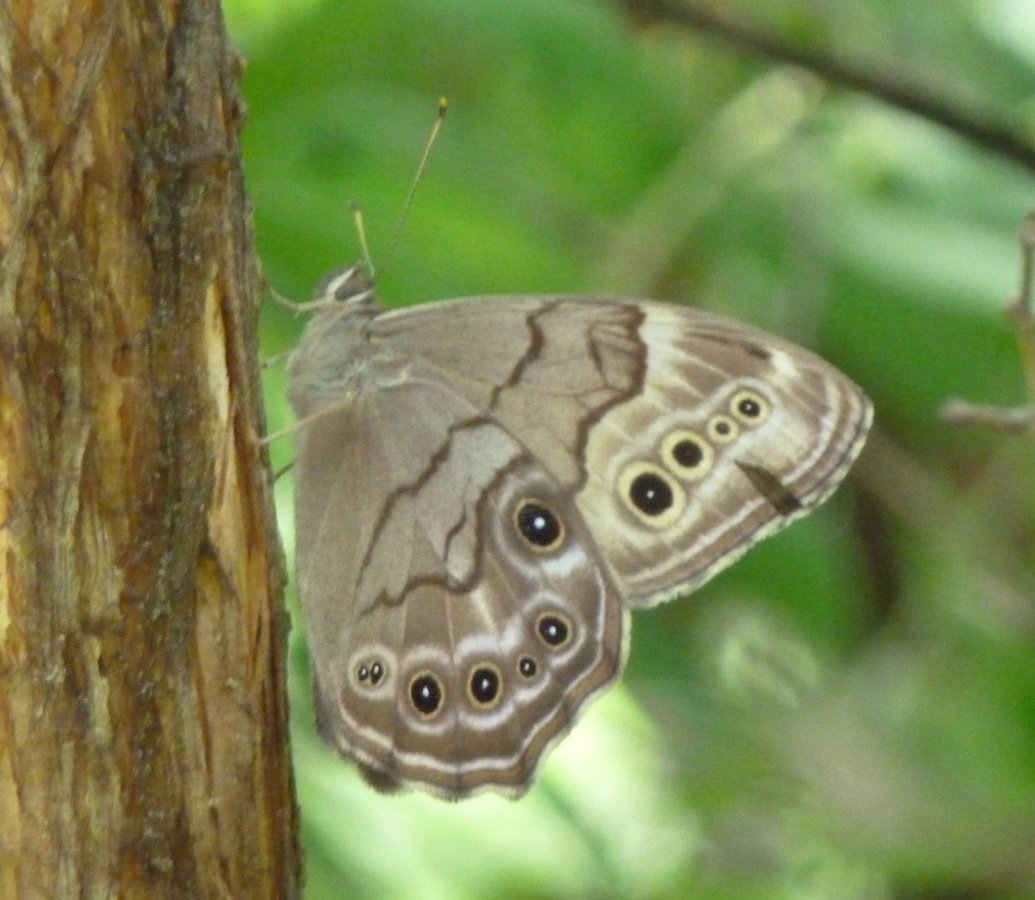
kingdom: Animalia
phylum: Arthropoda
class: Insecta
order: Lepidoptera
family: Nymphalidae
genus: Lethe
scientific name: Lethe anthedon
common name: Northern Pearly-Eye
